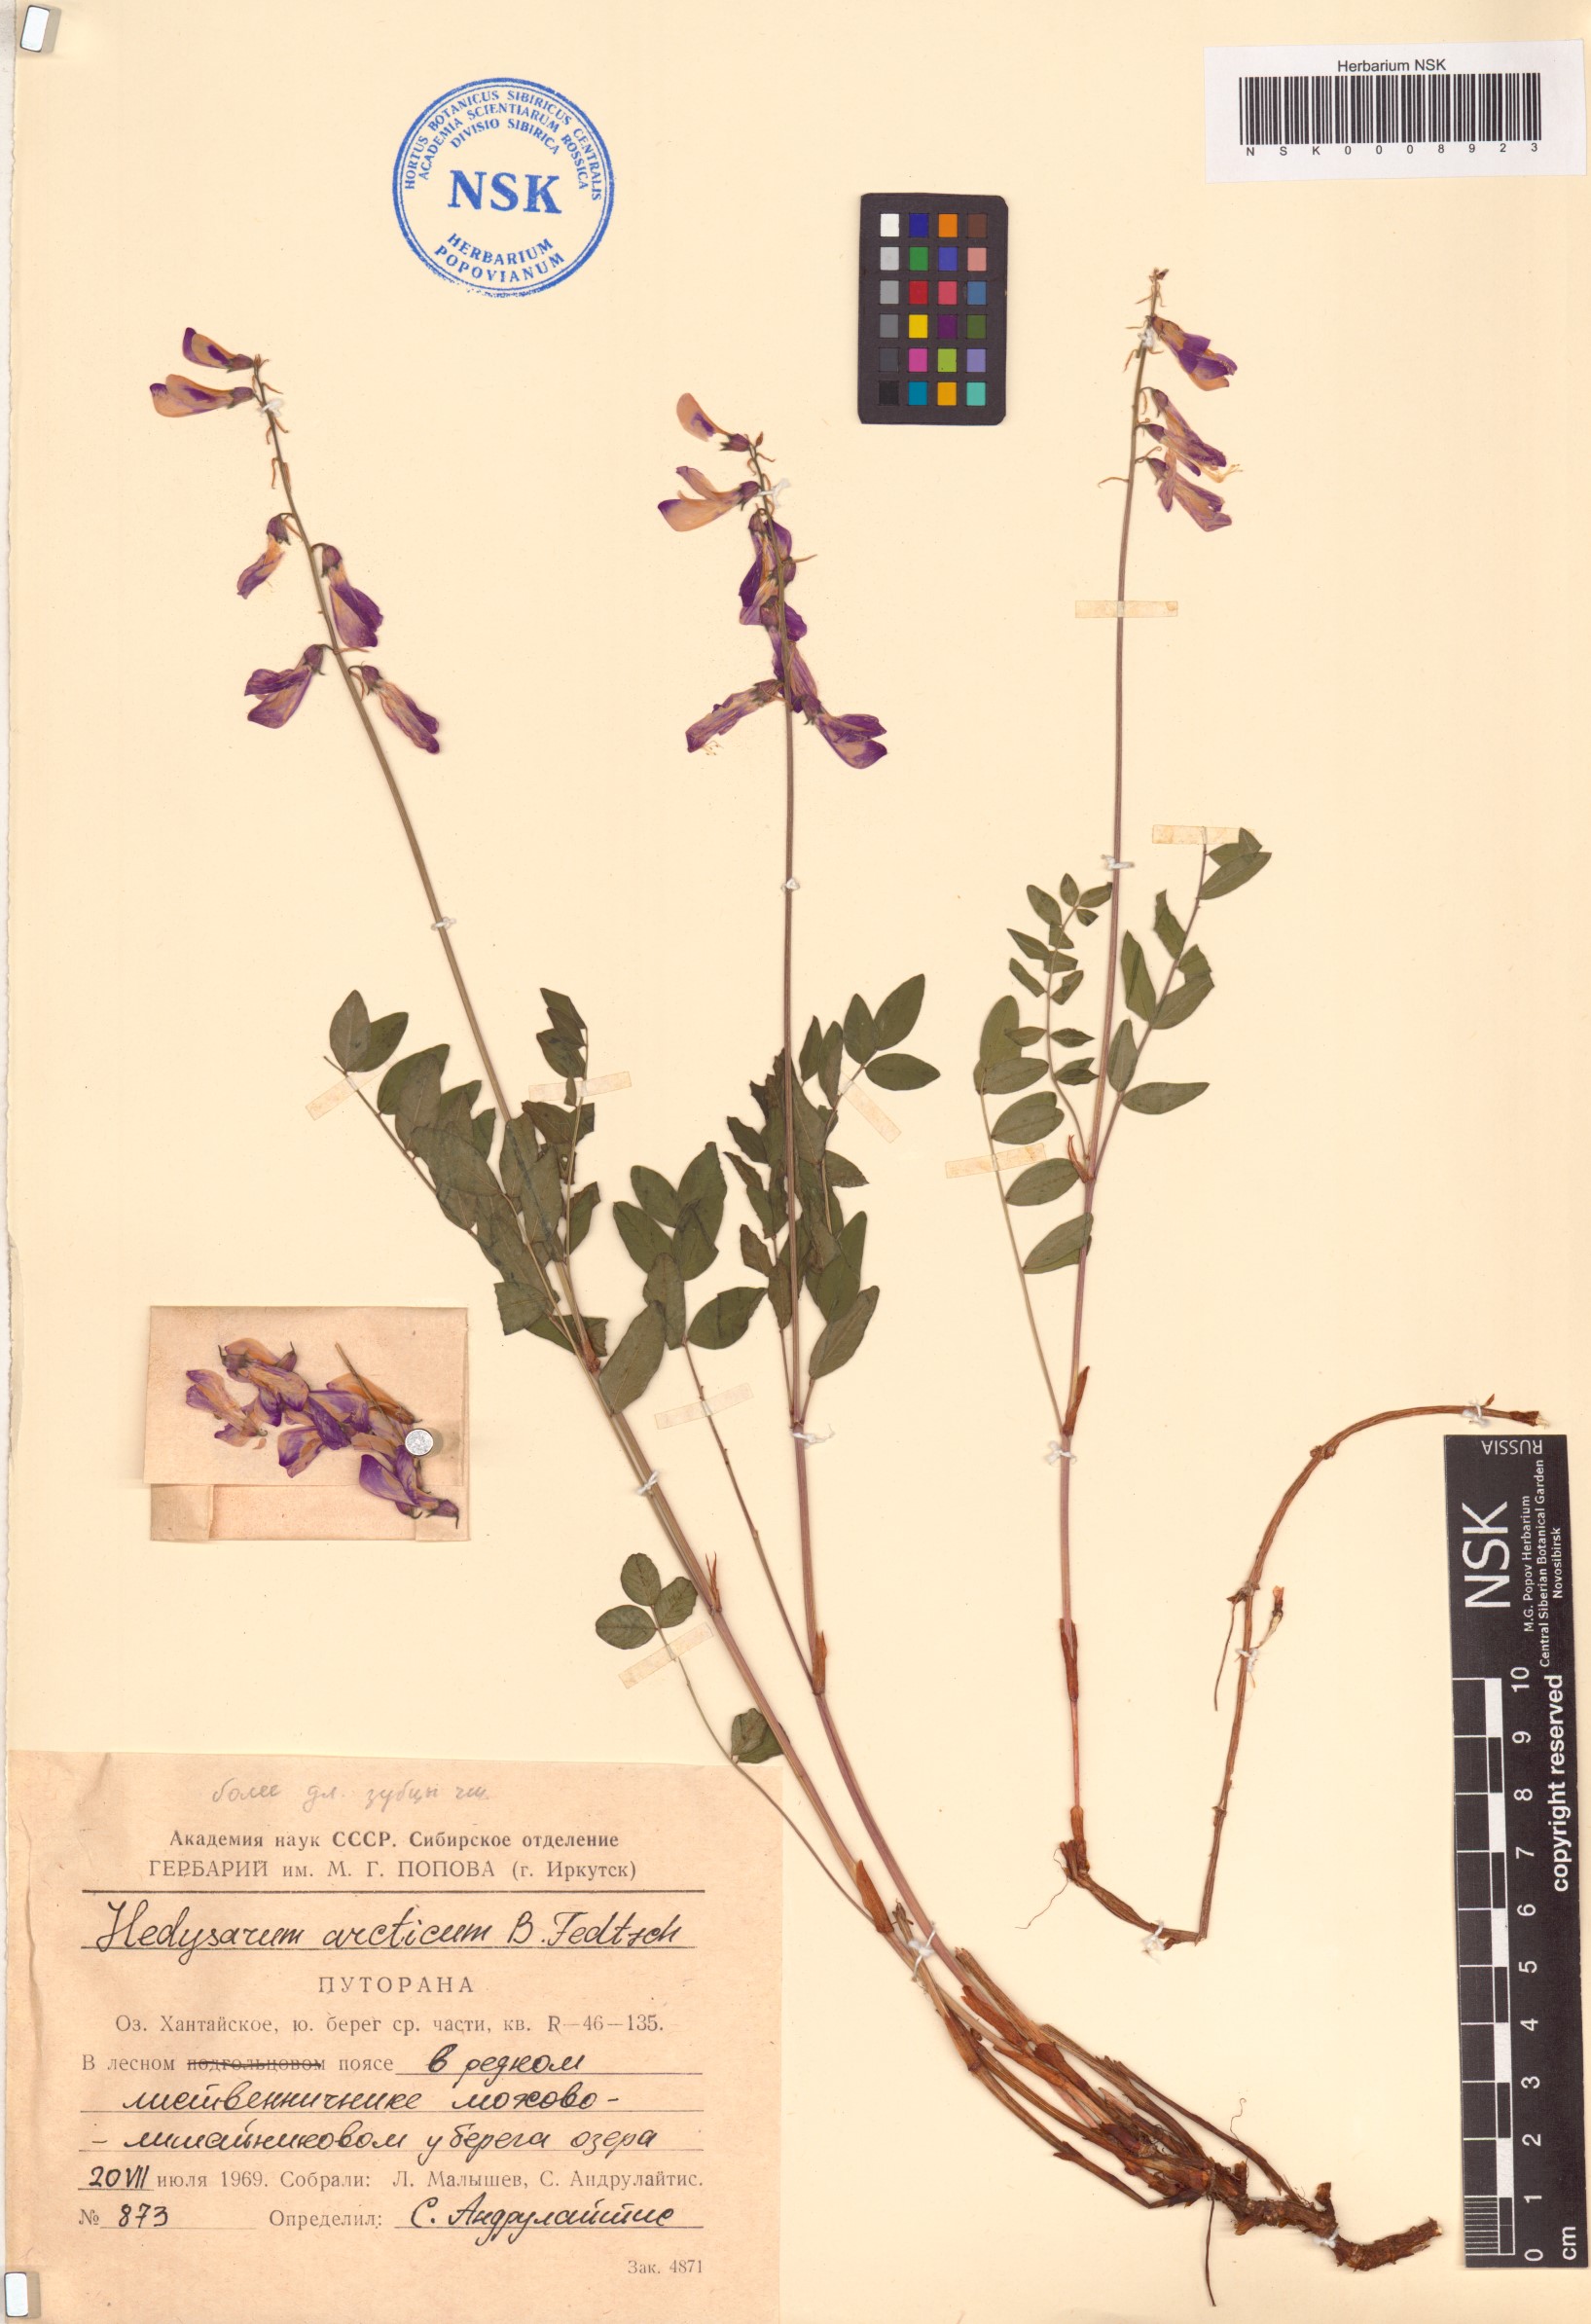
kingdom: Plantae
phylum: Tracheophyta
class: Magnoliopsida
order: Fabales
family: Fabaceae
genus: Hedysarum
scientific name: Hedysarum hedysaroides
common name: Alpine french-honeysuckle
